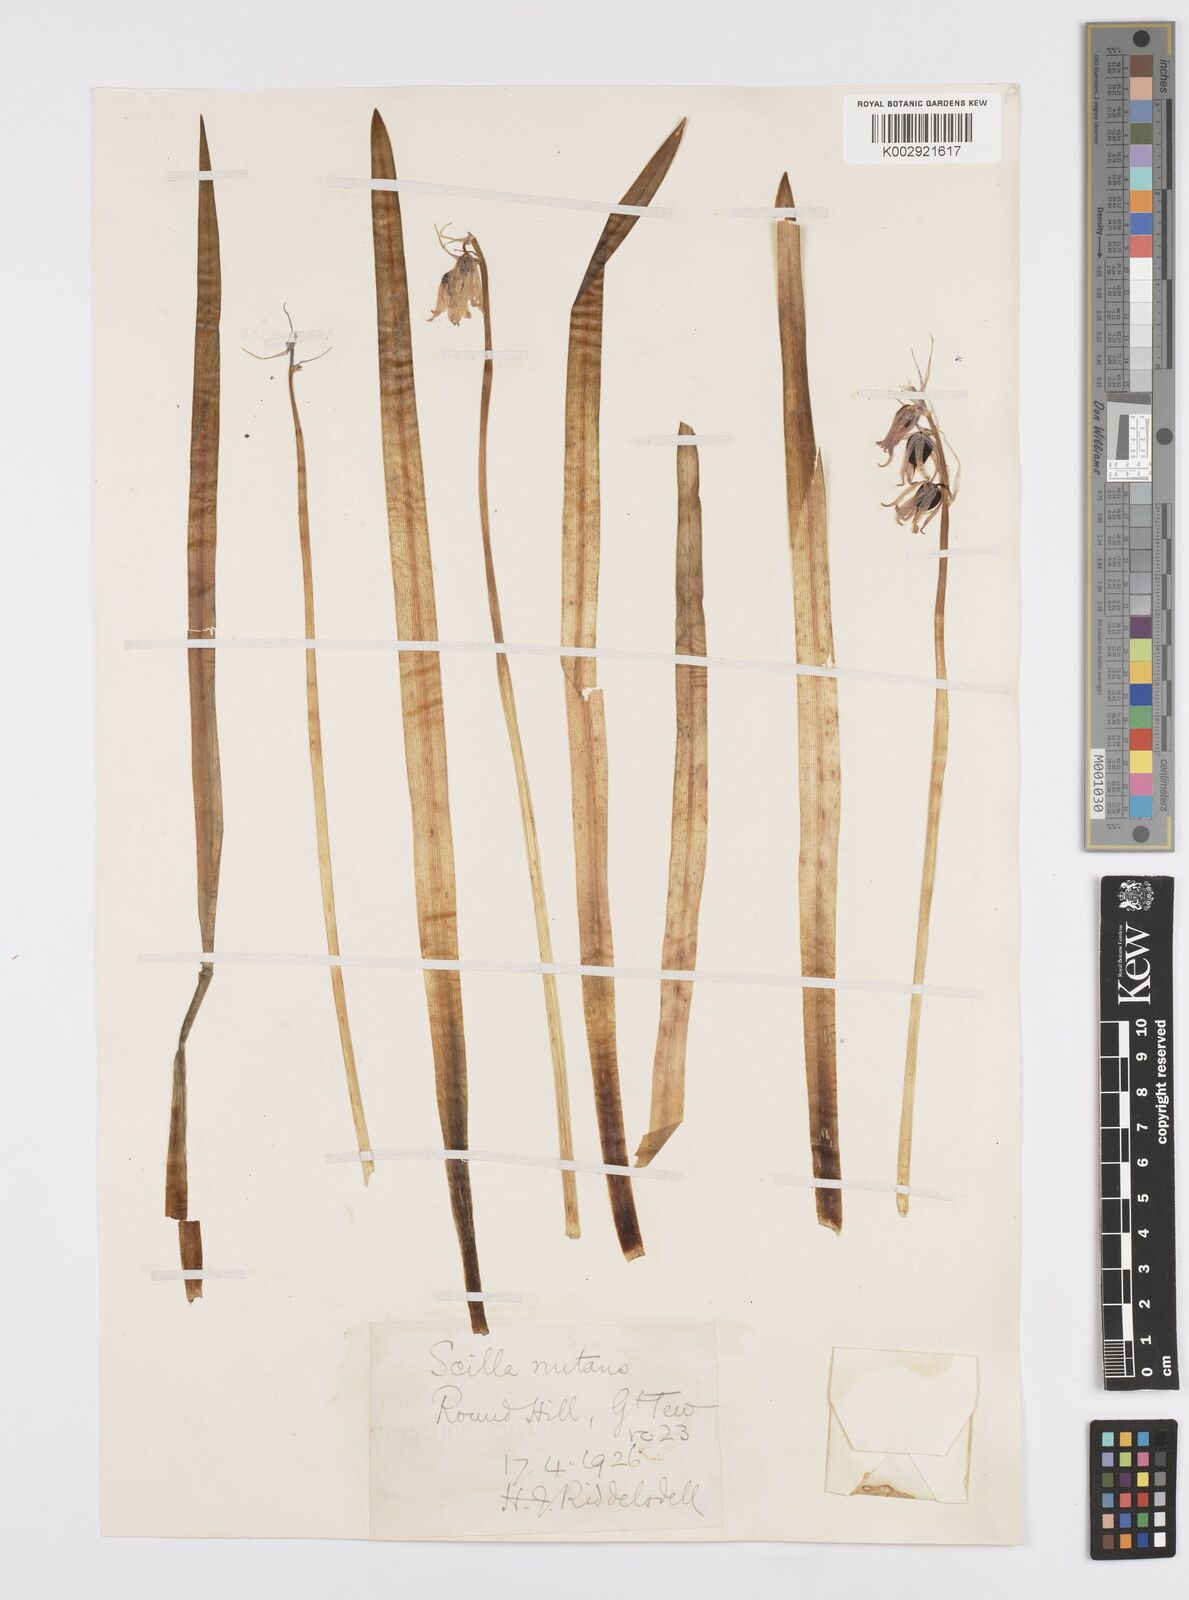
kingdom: Plantae
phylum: Tracheophyta
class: Liliopsida
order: Asparagales
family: Asparagaceae
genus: Hyacinthoides
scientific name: Hyacinthoides non-scripta
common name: Bluebell
